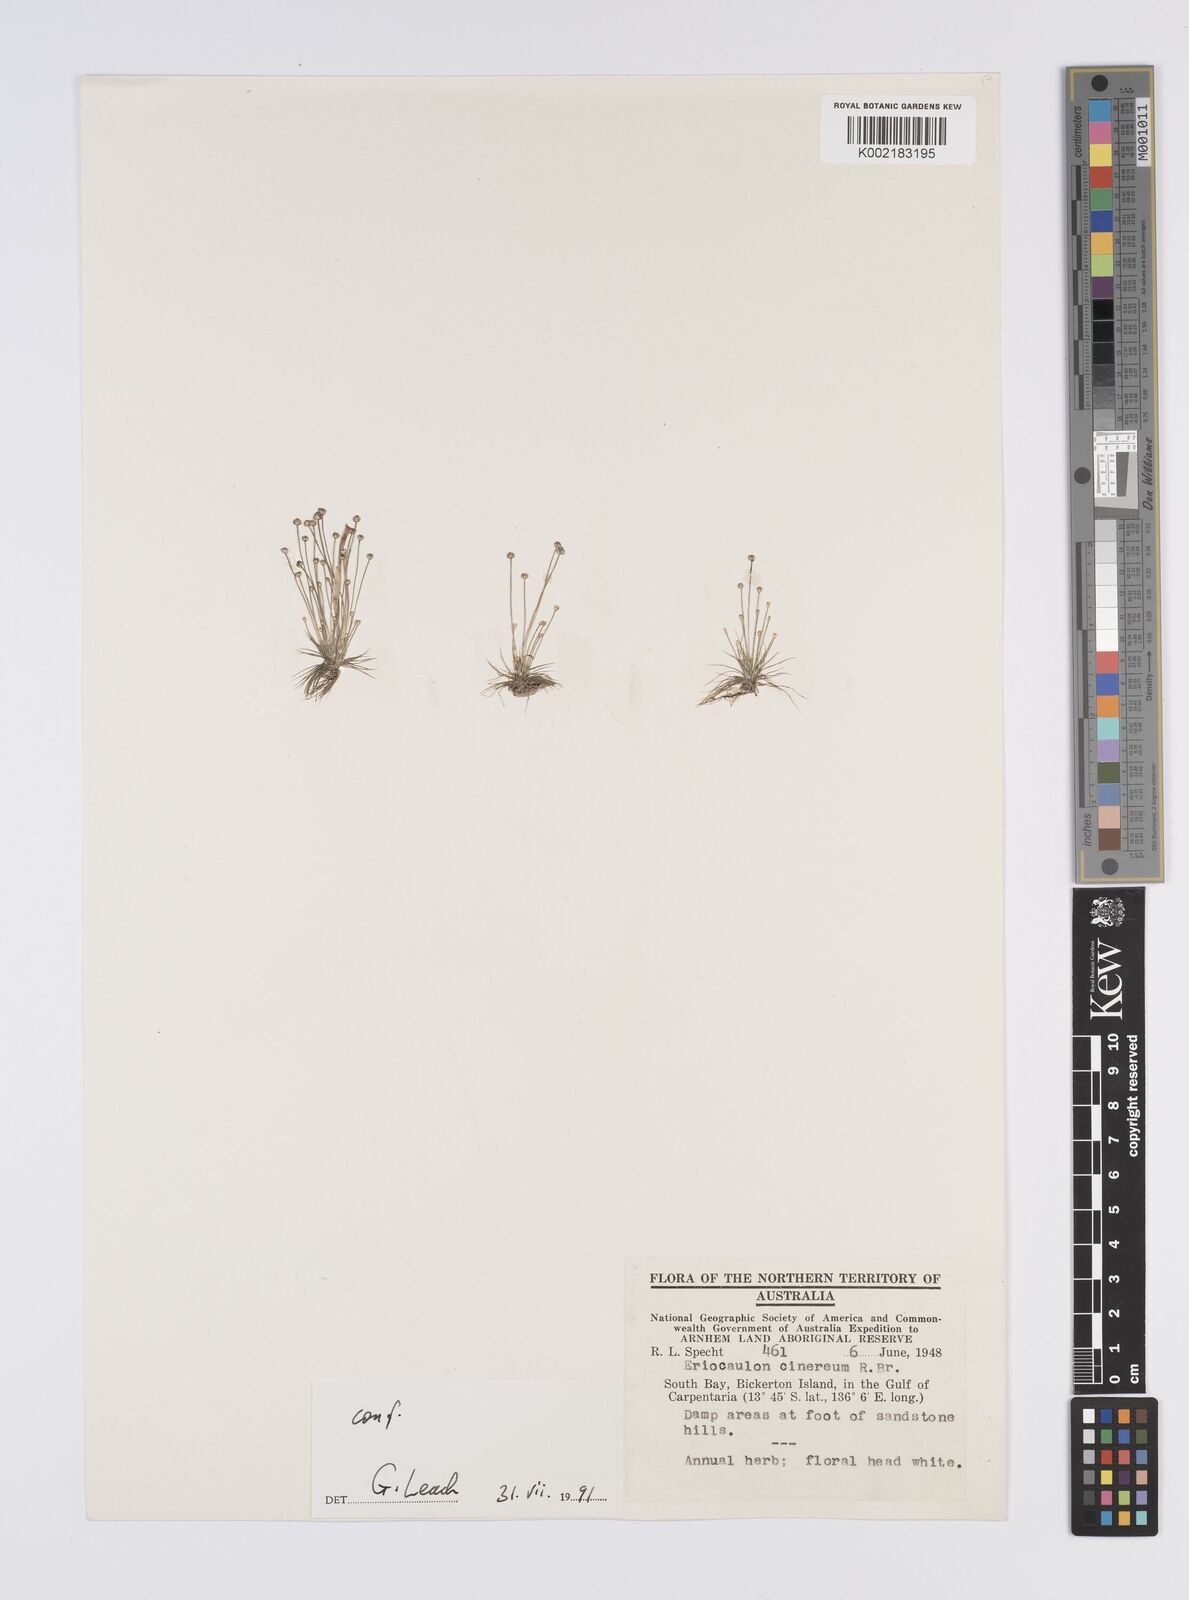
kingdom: Plantae
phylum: Tracheophyta
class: Liliopsida
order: Poales
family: Eriocaulaceae
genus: Eriocaulon
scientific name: Eriocaulon cinereum
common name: Ashy pipewort
